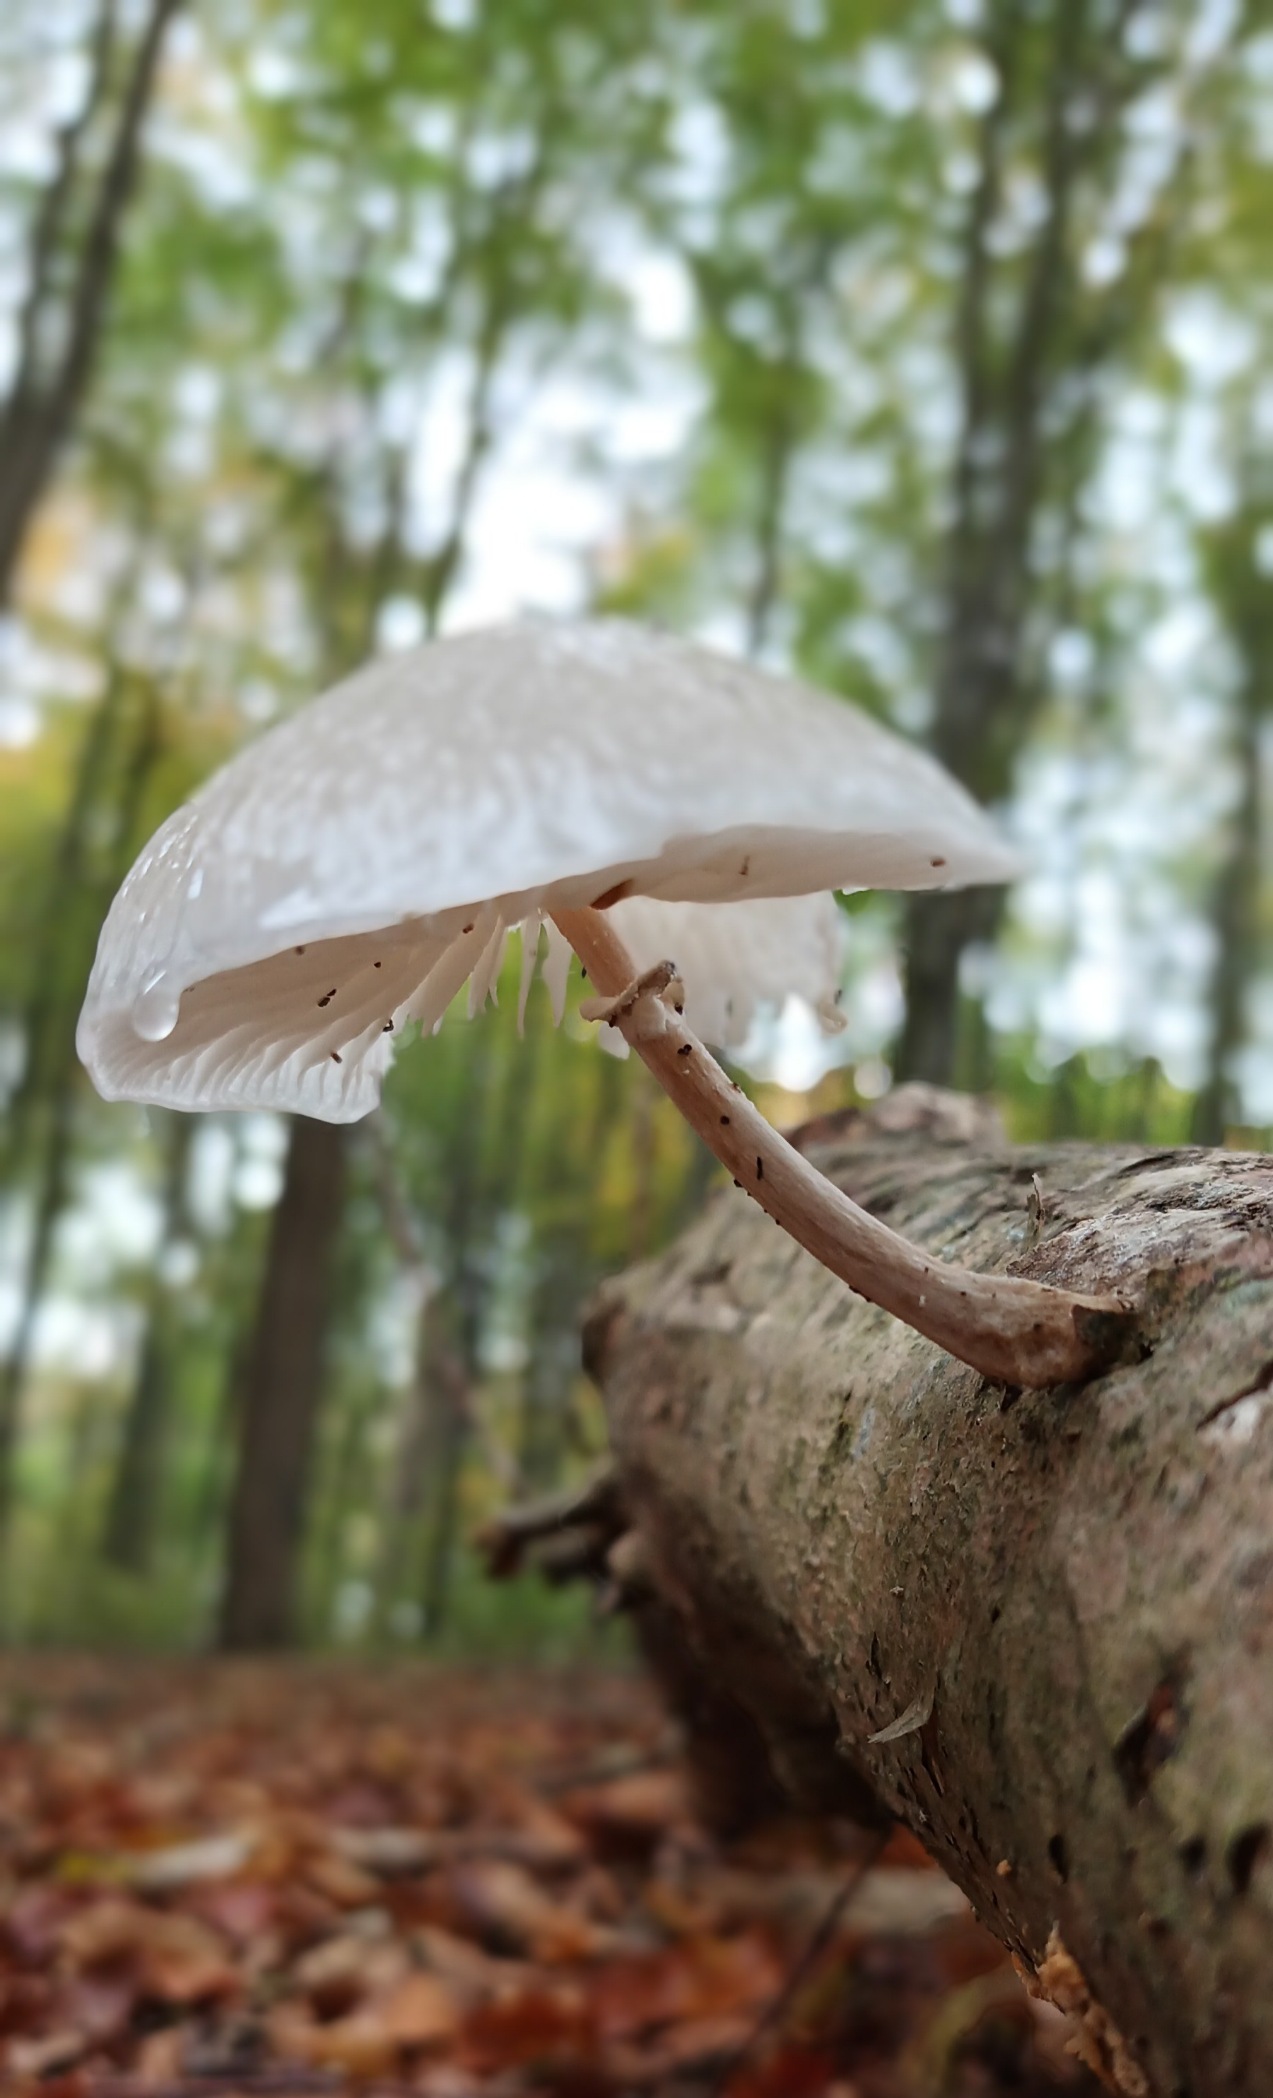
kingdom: Fungi
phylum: Basidiomycota
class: Agaricomycetes
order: Agaricales
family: Physalacriaceae
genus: Mucidula
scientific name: Mucidula mucida
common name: Porcelænshat
